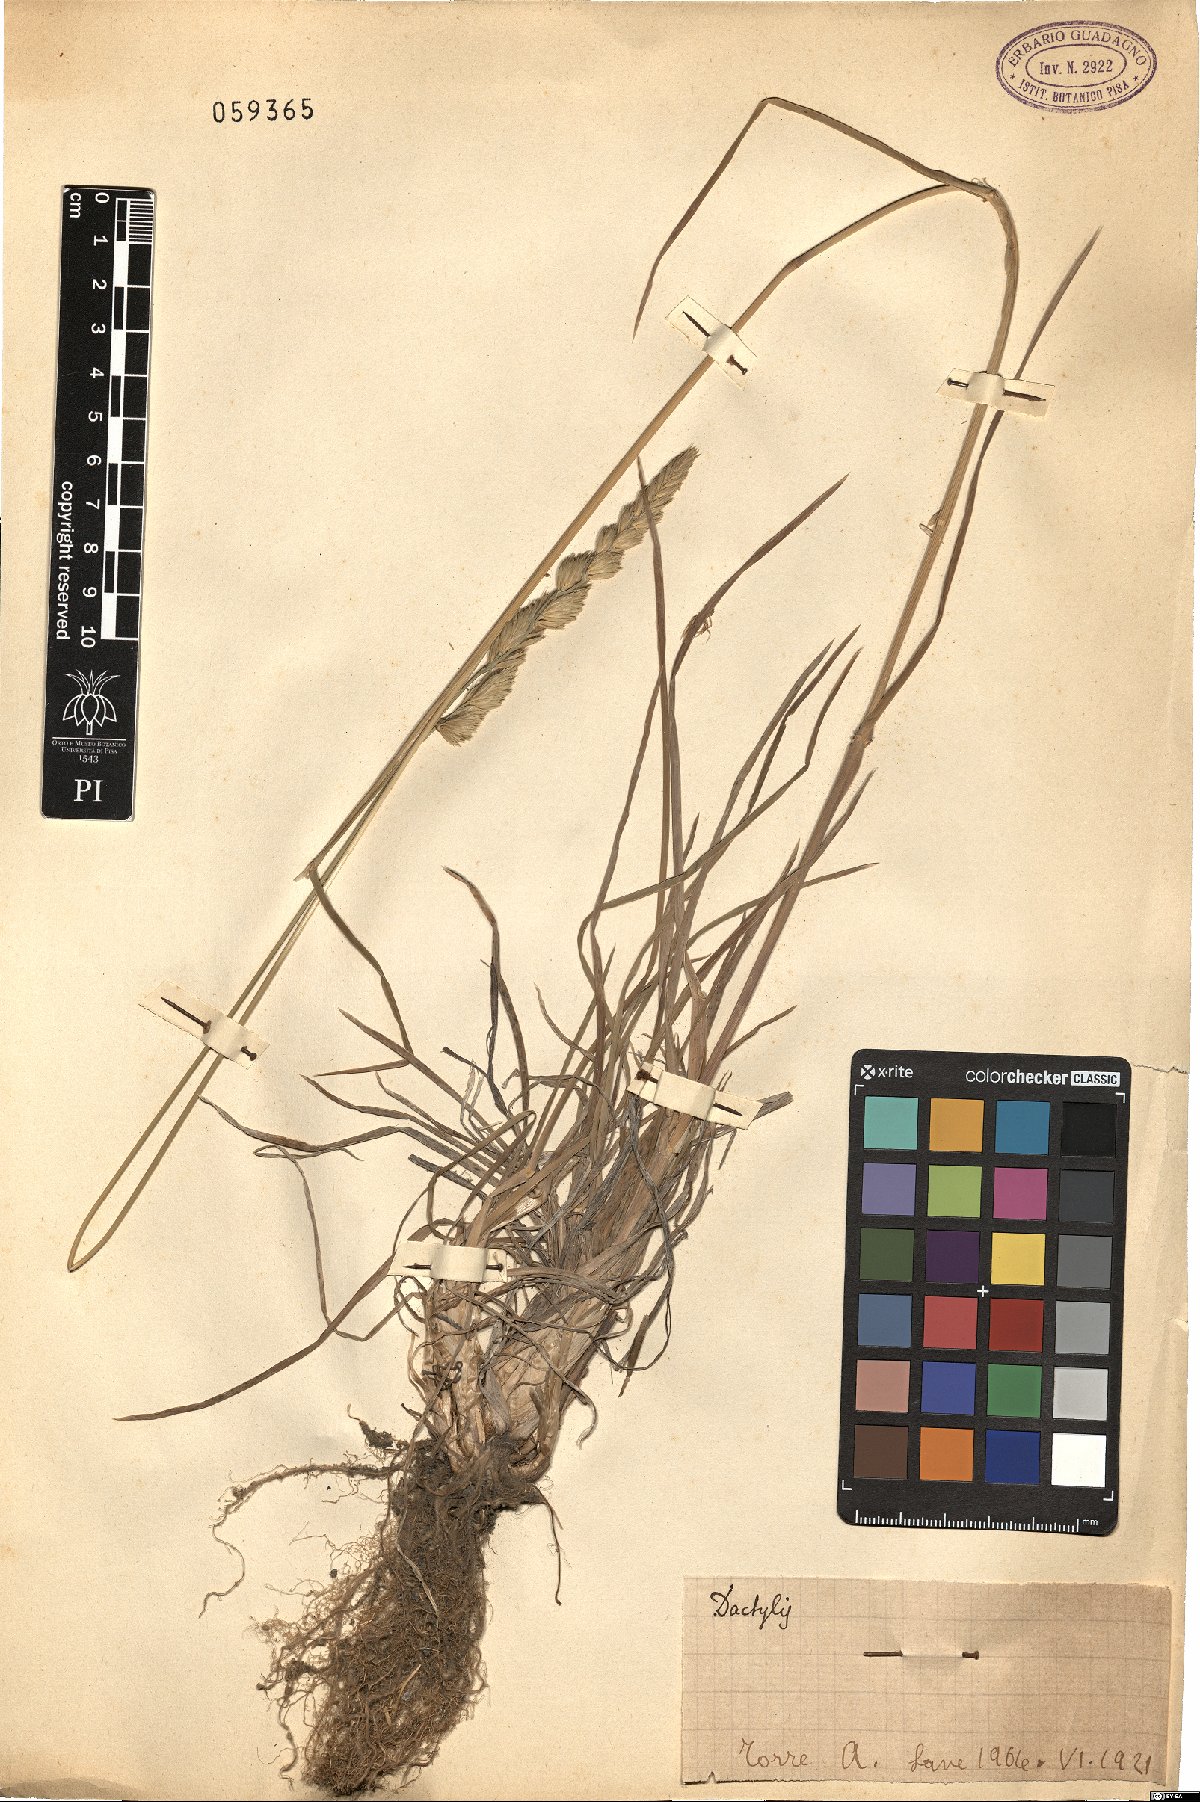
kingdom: Plantae
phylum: Tracheophyta
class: Liliopsida
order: Poales
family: Poaceae
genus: Dactylis
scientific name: Dactylis
